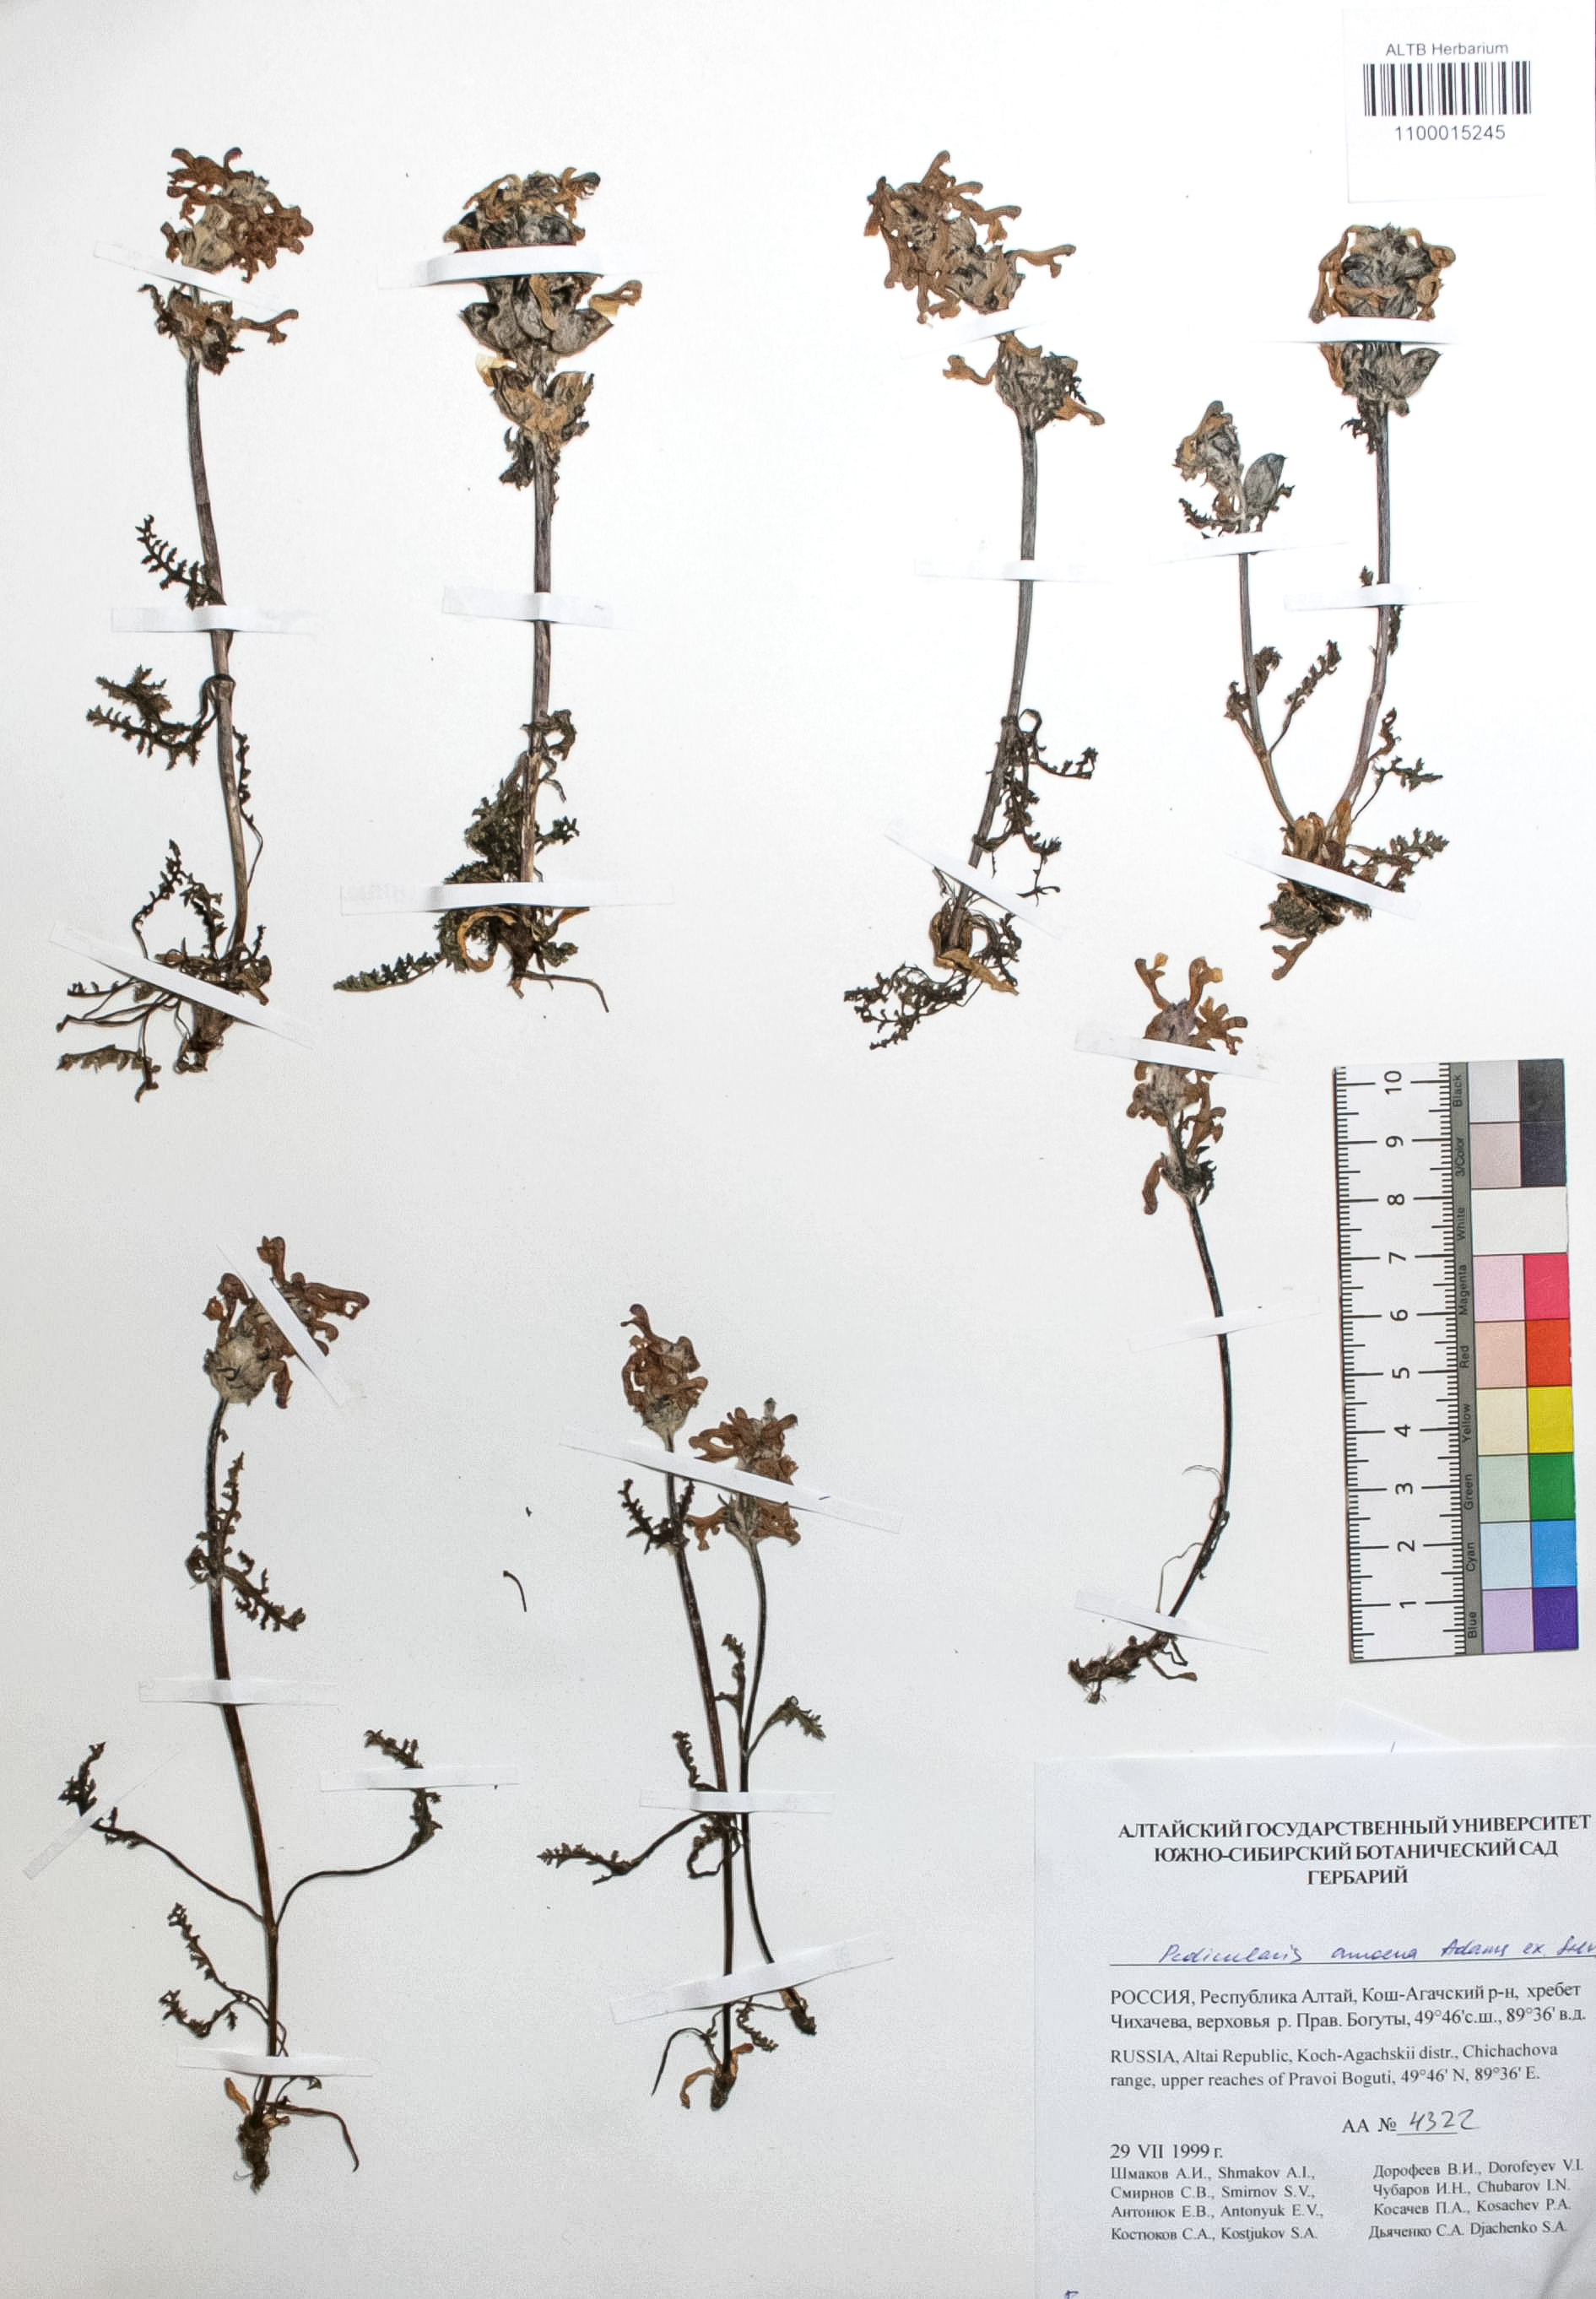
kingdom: Plantae
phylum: Tracheophyta
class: Magnoliopsida
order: Lamiales
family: Orobanchaceae
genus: Pedicularis
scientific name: Pedicularis amoena
